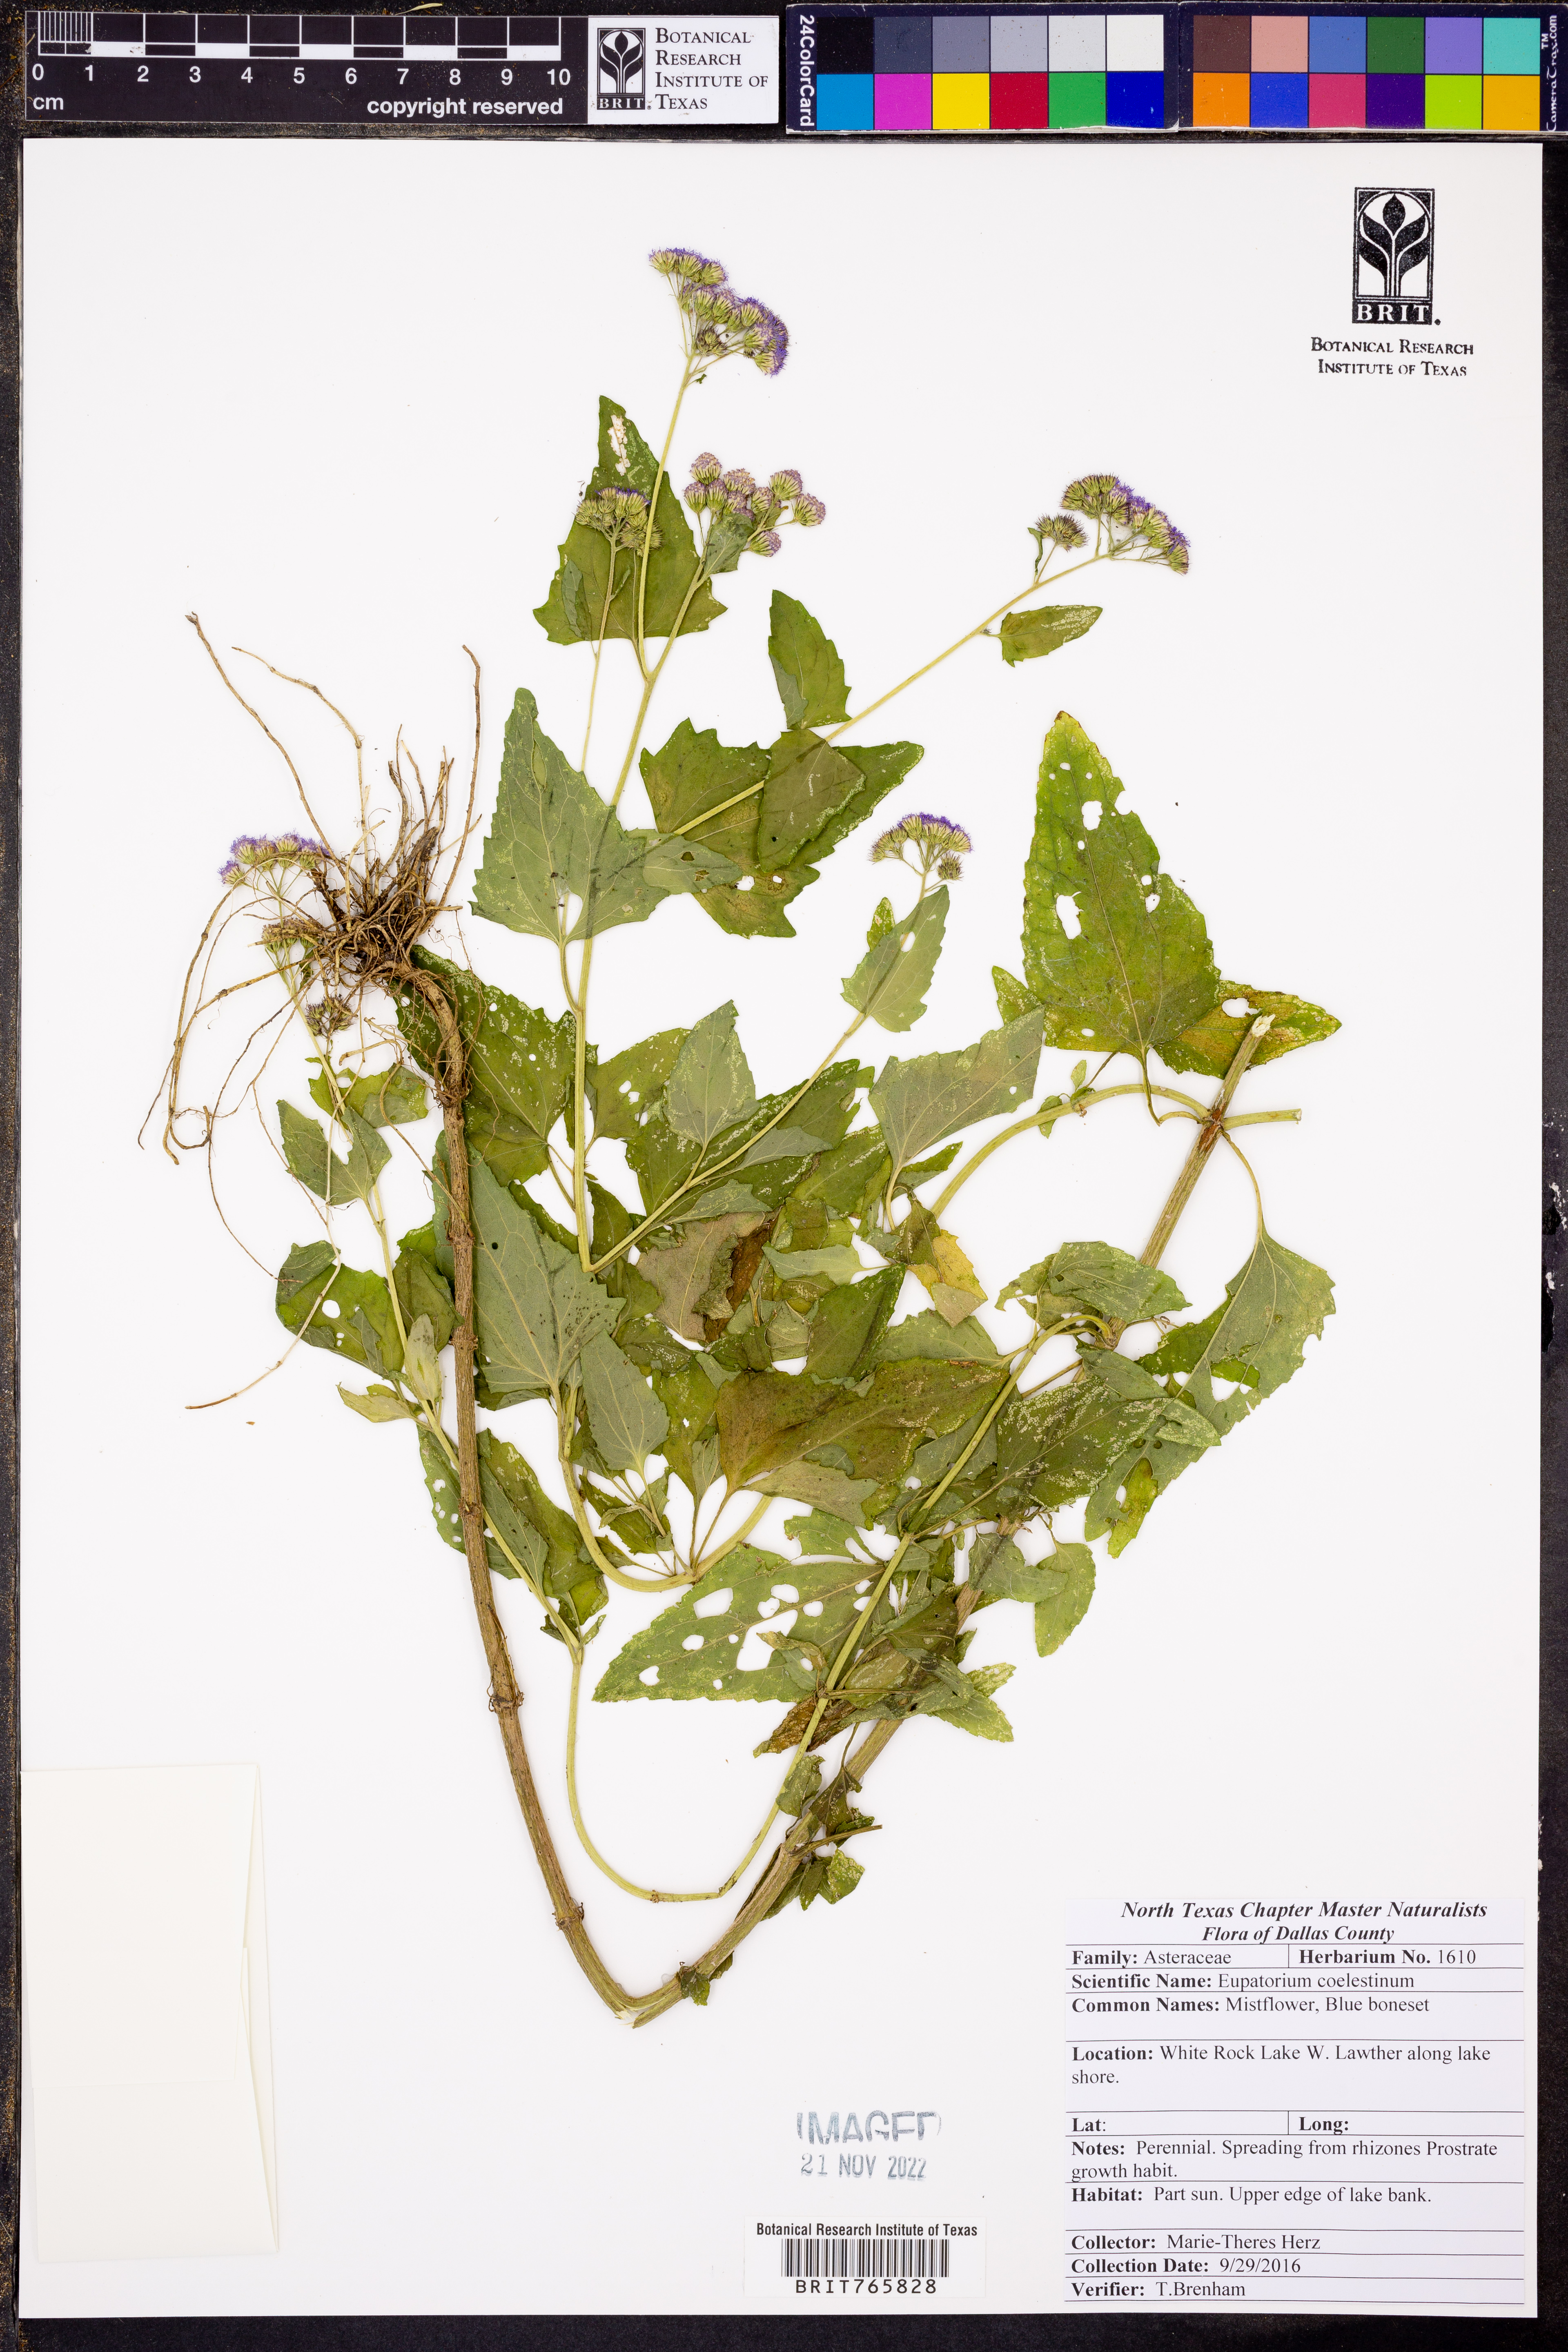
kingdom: Plantae
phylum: Tracheophyta
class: Magnoliopsida
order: Asterales
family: Asteraceae
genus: Conoclinium
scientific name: Conoclinium coelestinum
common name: Blue mistflower
